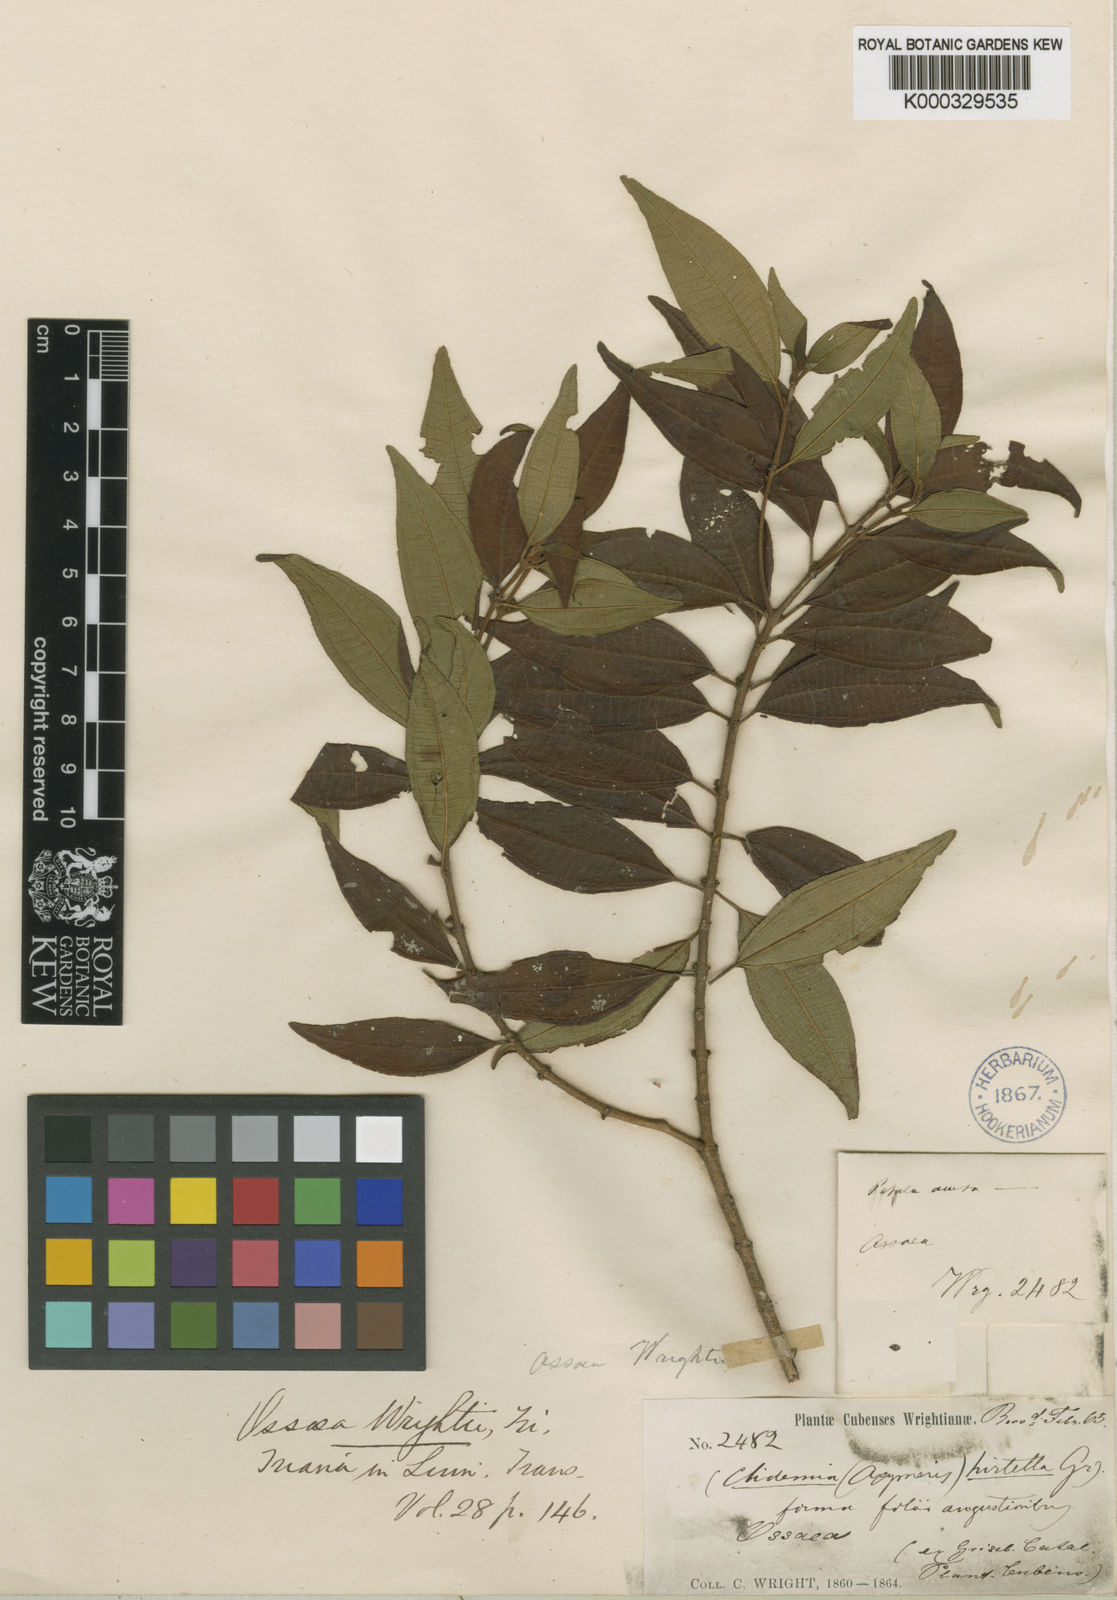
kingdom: Plantae
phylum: Tracheophyta
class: Magnoliopsida
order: Myrtales
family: Melastomataceae
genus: Miconia
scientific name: Miconia
